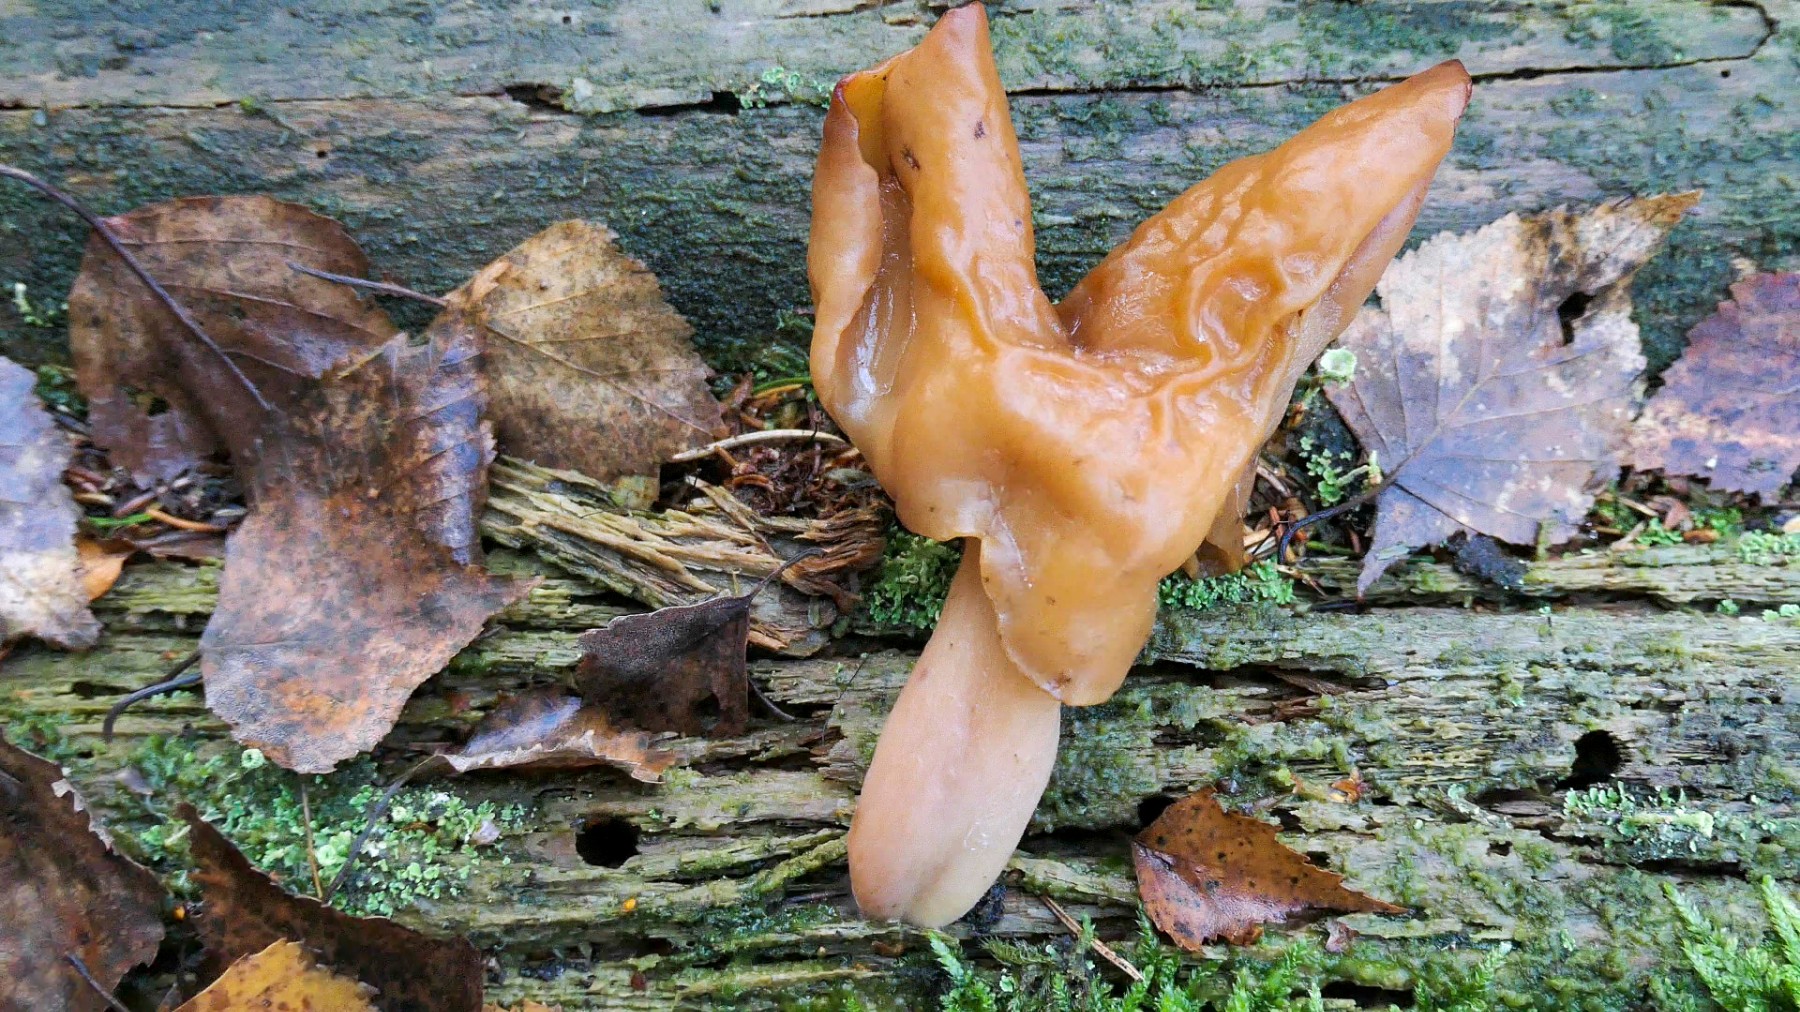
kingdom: Fungi
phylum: Ascomycota
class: Pezizomycetes
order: Pezizales
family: Discinaceae
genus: Gyromitra
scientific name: Gyromitra infula
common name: bispehue-stenmorkel
